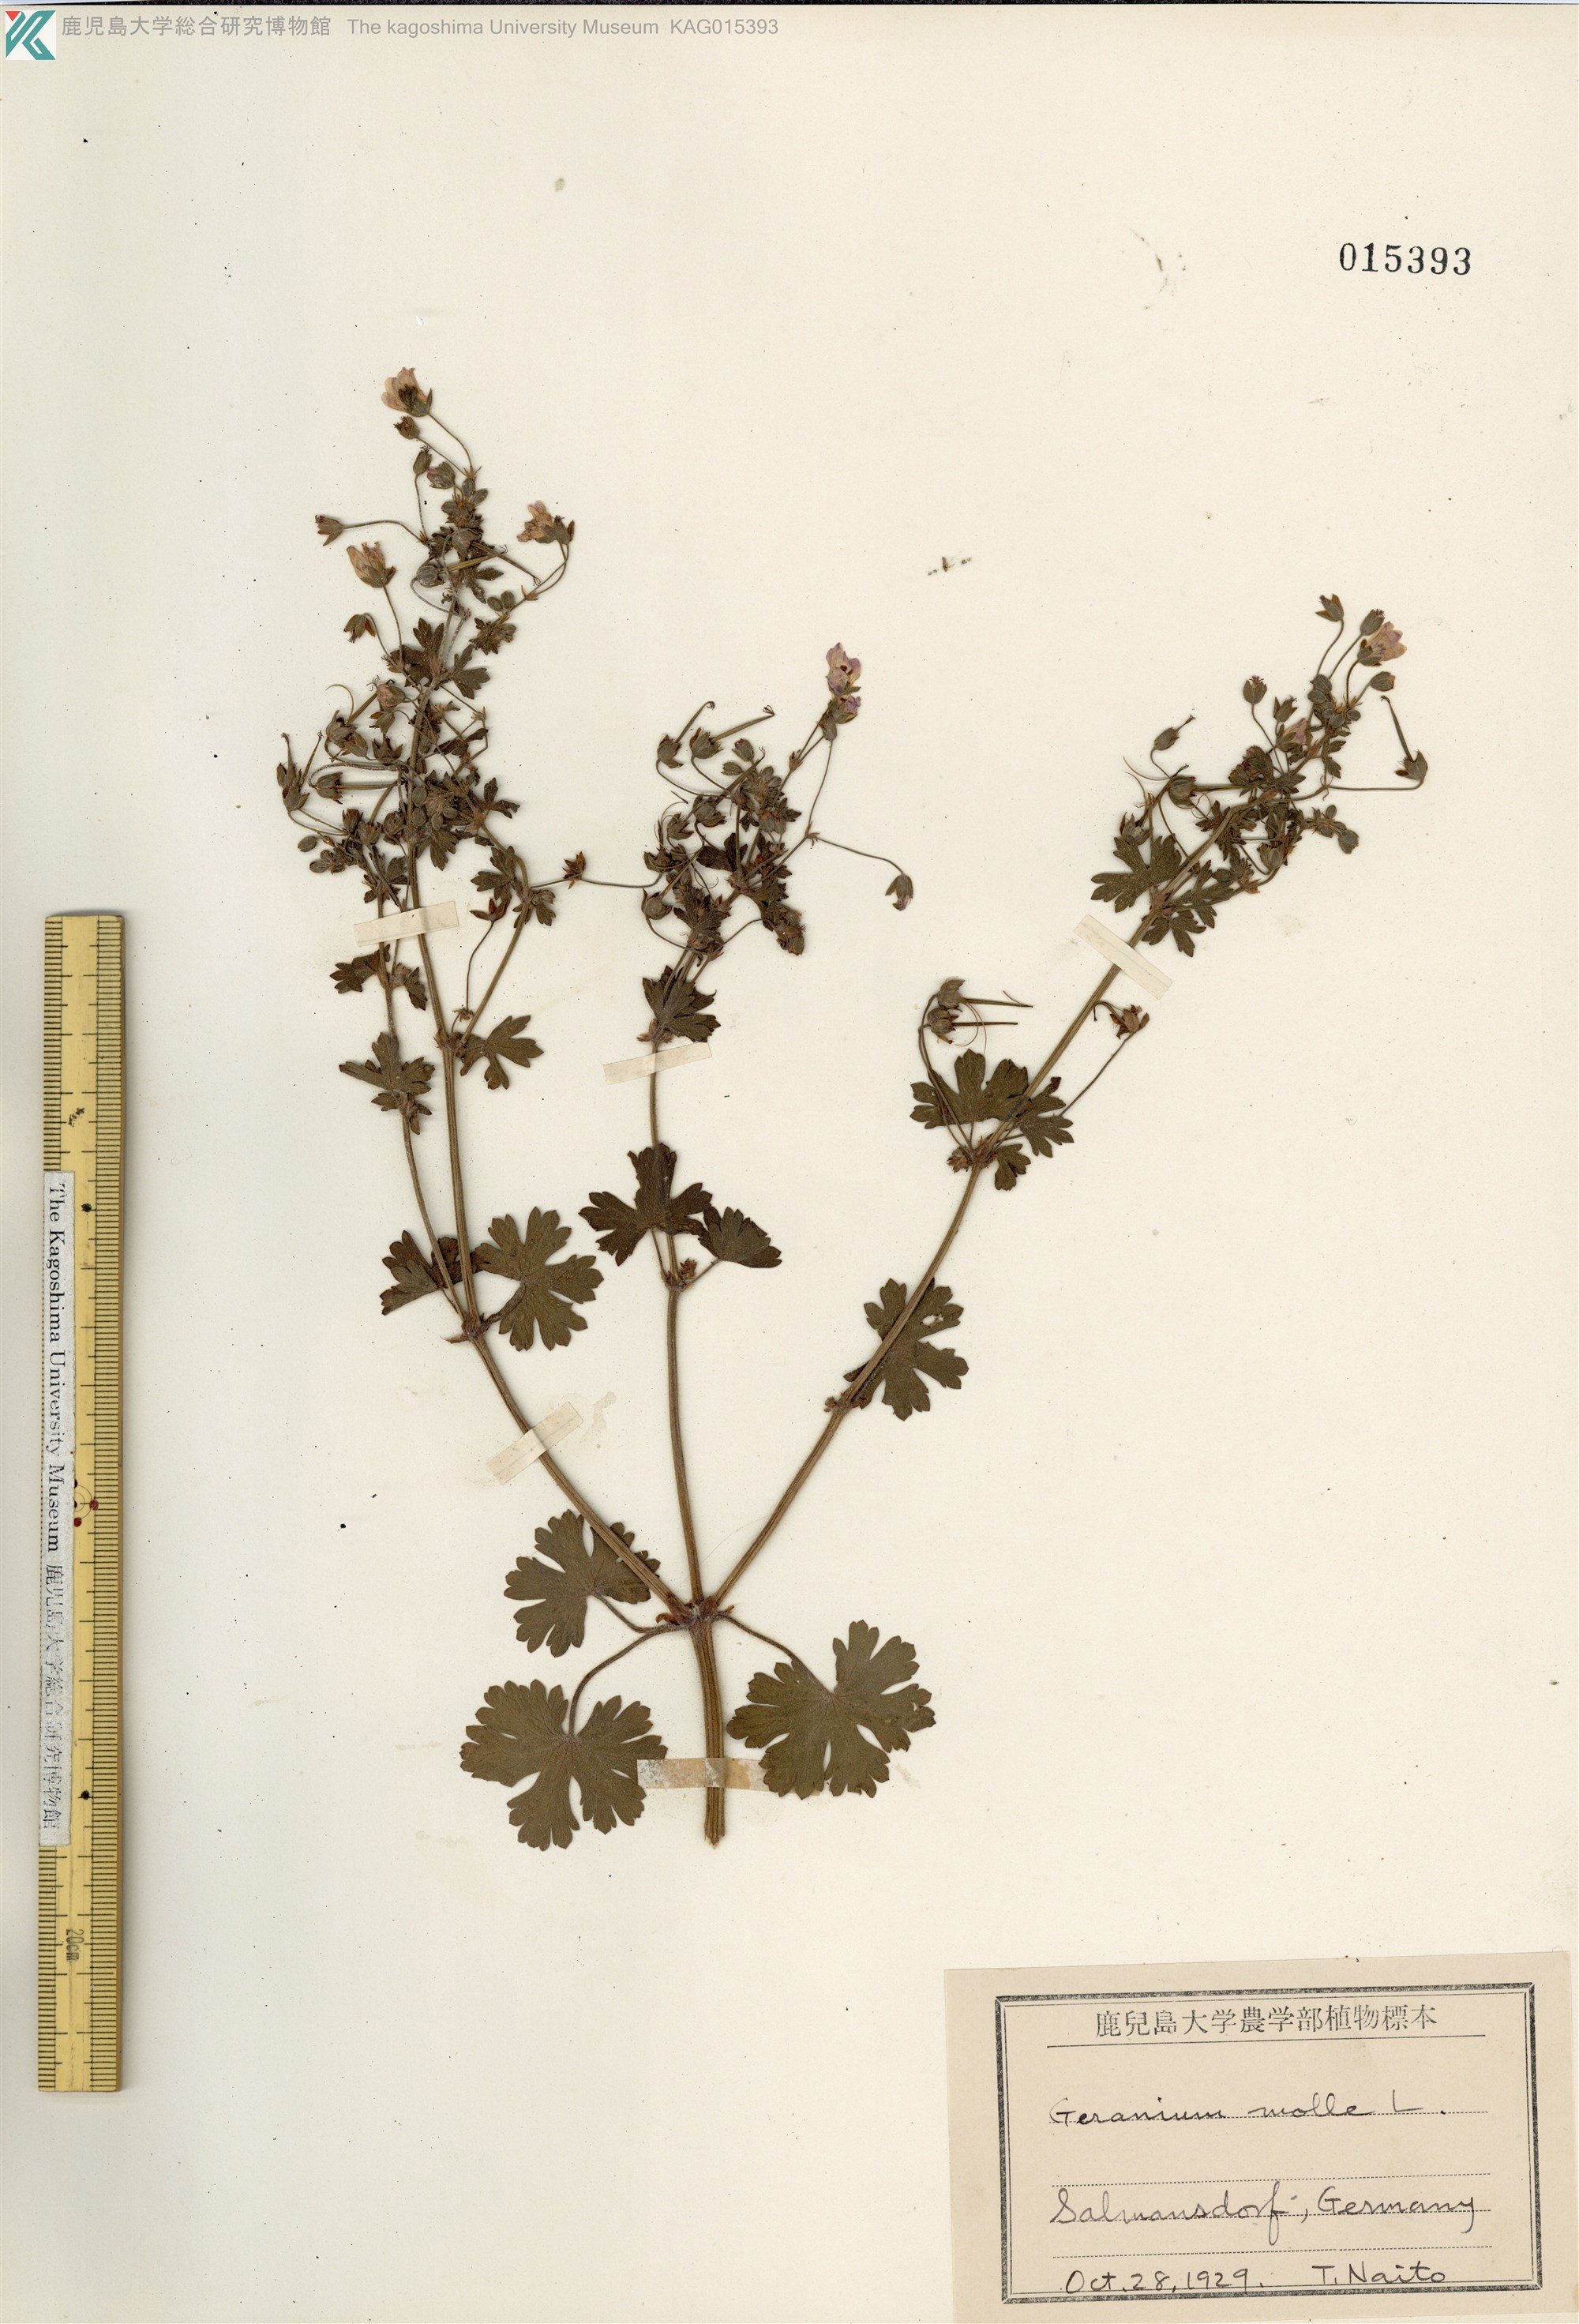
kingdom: Plantae
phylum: Tracheophyta
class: Magnoliopsida
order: Geraniales
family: Geraniaceae
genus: Geranium
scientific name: Geranium molle
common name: Dove's-foot crane's-bill
